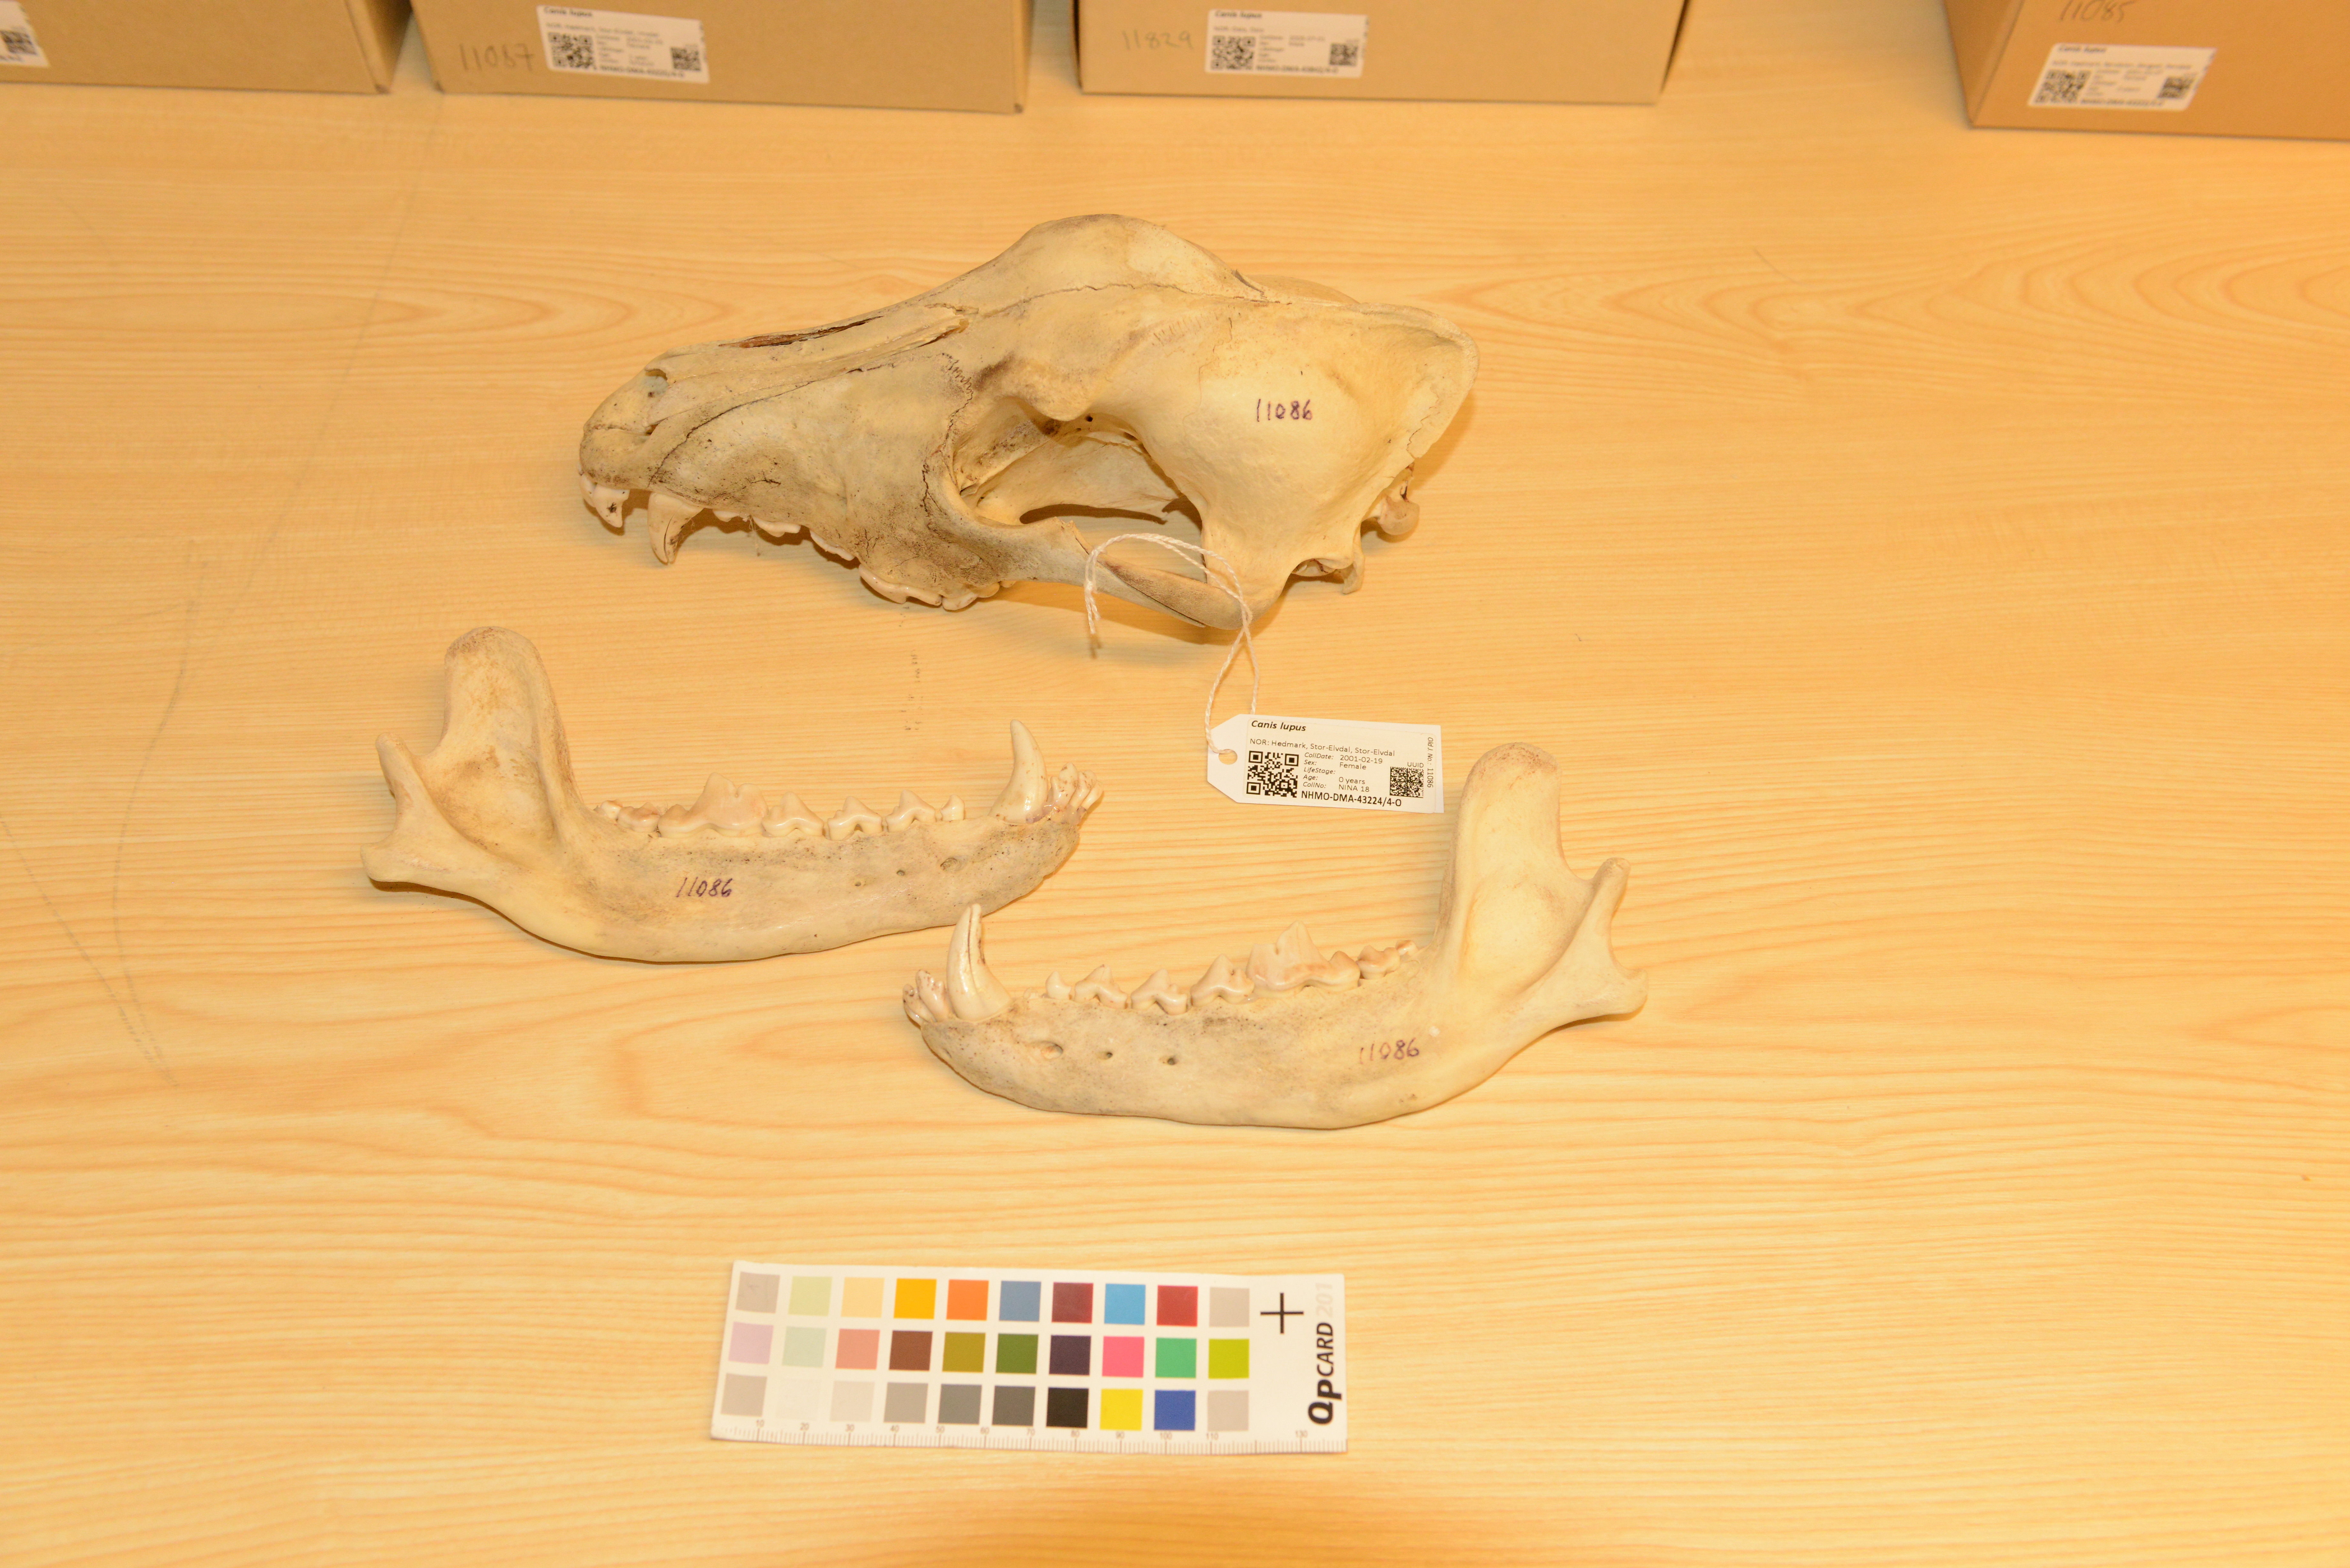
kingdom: Animalia
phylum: Chordata
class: Mammalia
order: Carnivora
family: Canidae
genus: Canis
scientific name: Canis lupus
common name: Gray wolf
